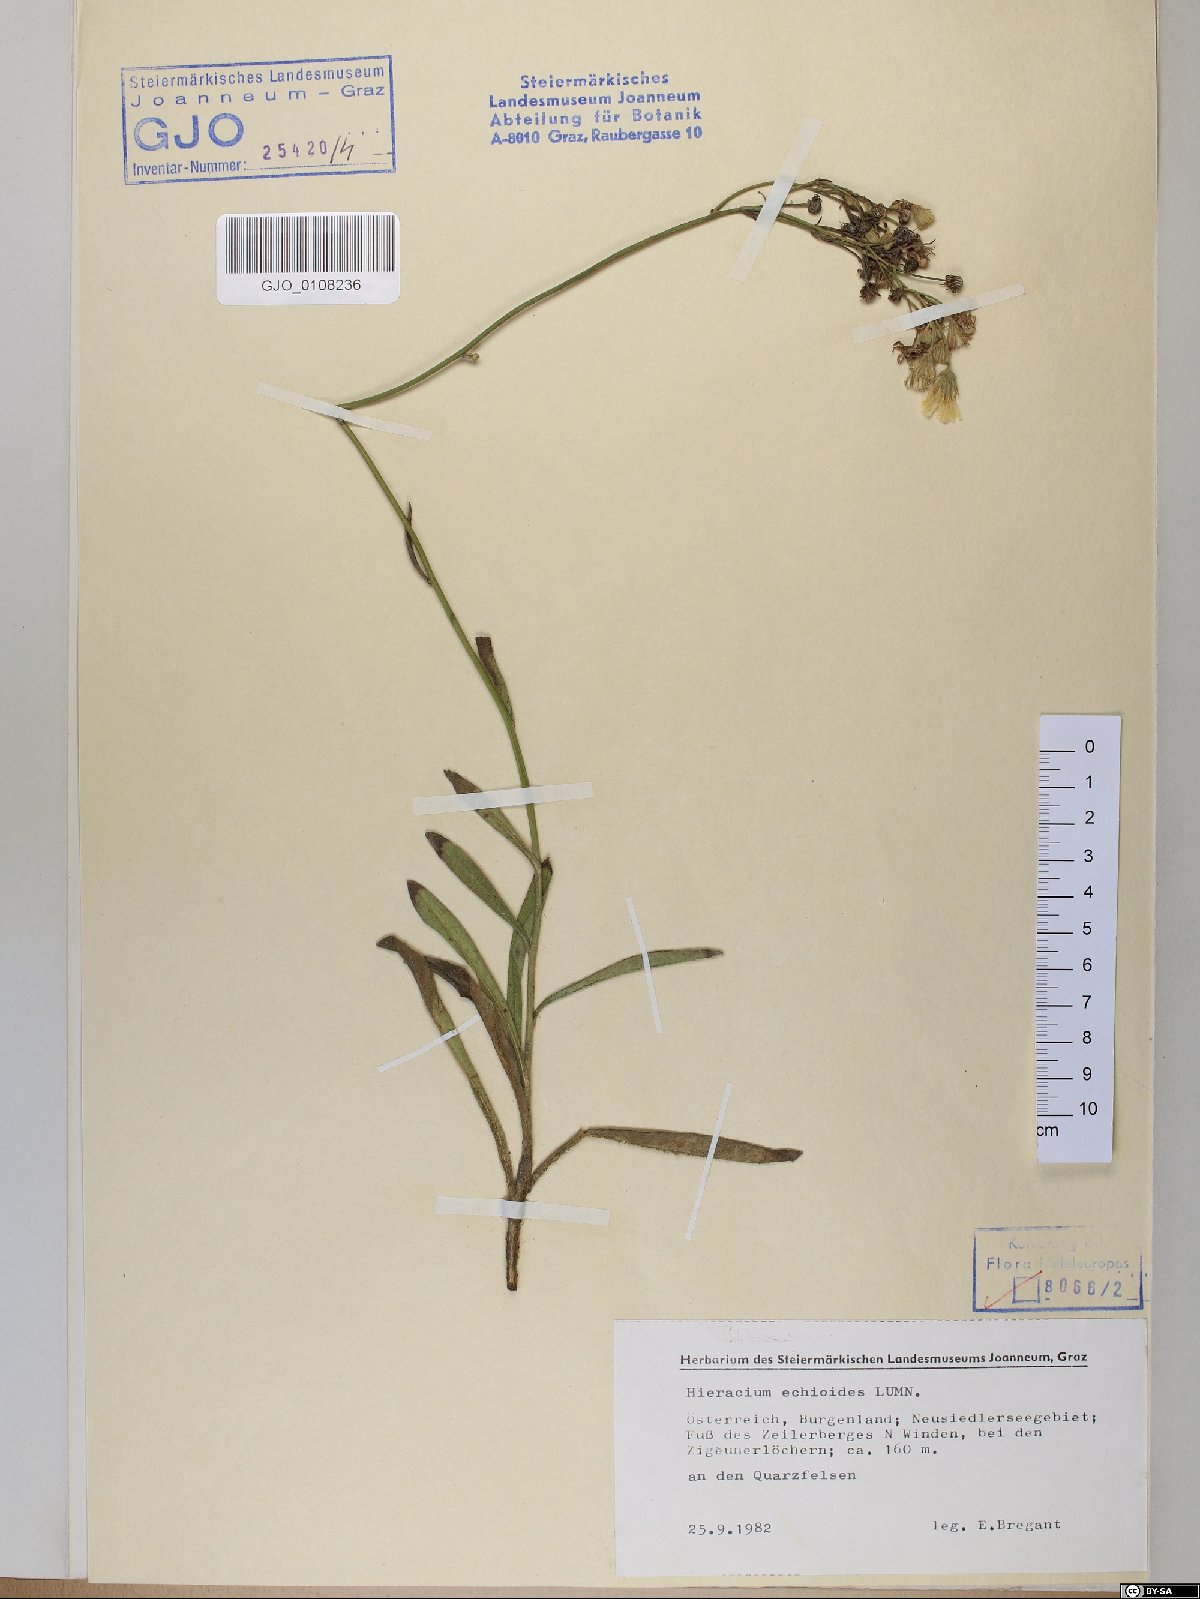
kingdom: Plantae
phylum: Tracheophyta
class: Magnoliopsida
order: Asterales
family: Asteraceae
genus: Pilosella
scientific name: Pilosella echioides
